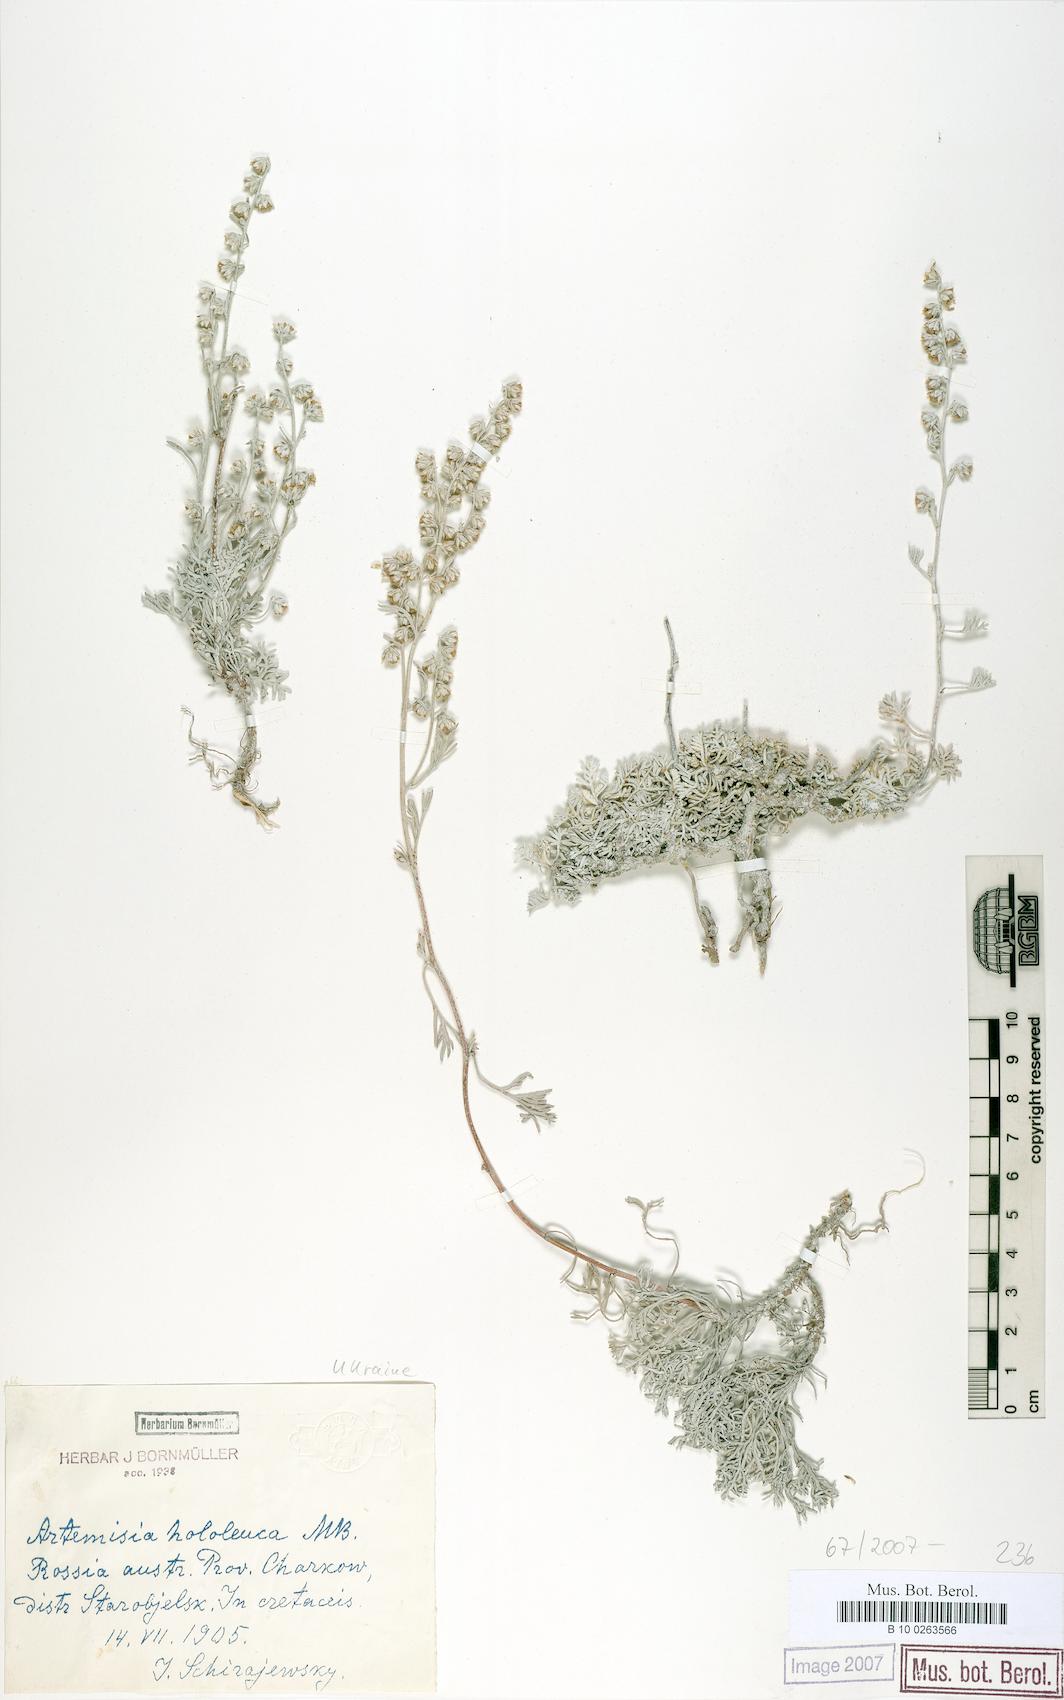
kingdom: Plantae
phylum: Tracheophyta
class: Magnoliopsida
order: Asterales
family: Asteraceae
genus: Artemisia
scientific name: Artemisia hololeuca
